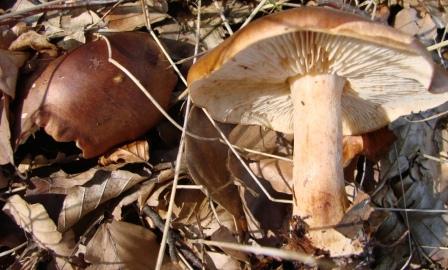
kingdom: Fungi
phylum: Basidiomycota
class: Agaricomycetes
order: Agaricales
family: Tricholomataceae
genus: Tricholoma
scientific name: Tricholoma ustale
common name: sveden ridderhat
